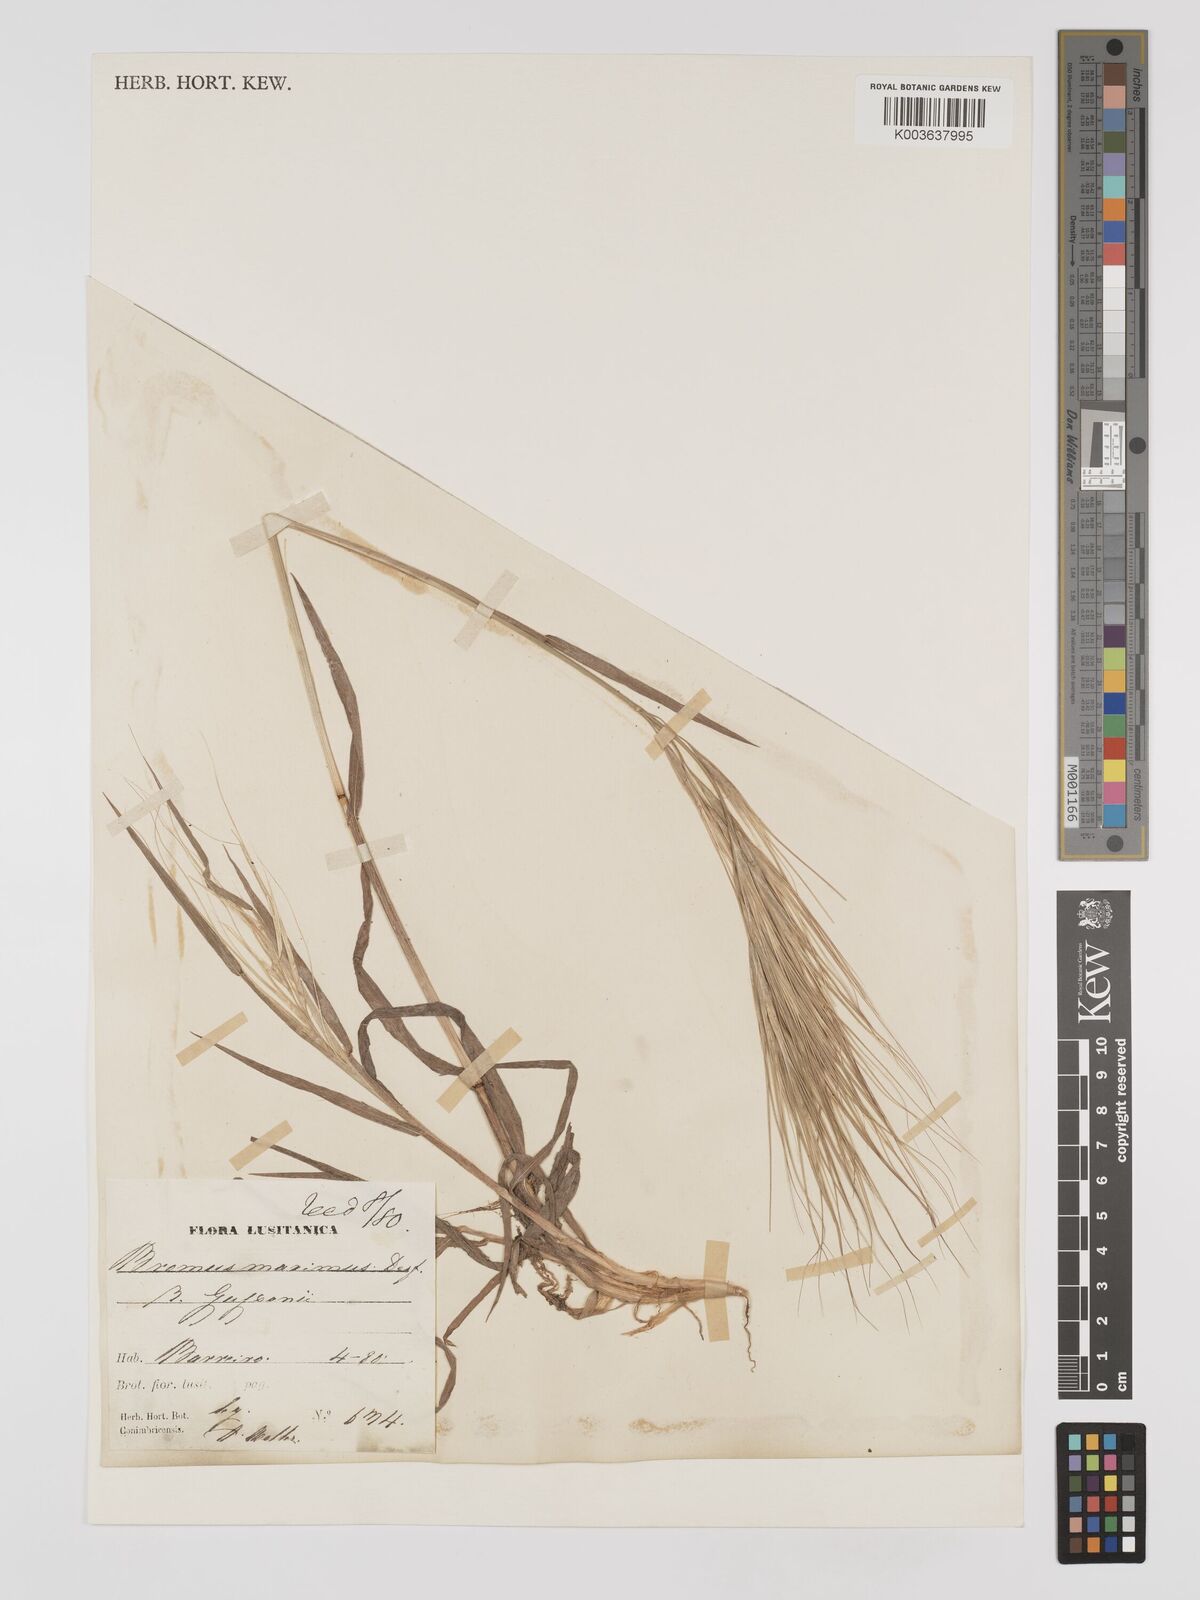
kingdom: Plantae
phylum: Tracheophyta
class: Liliopsida
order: Poales
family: Poaceae
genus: Bromus
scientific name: Bromus
